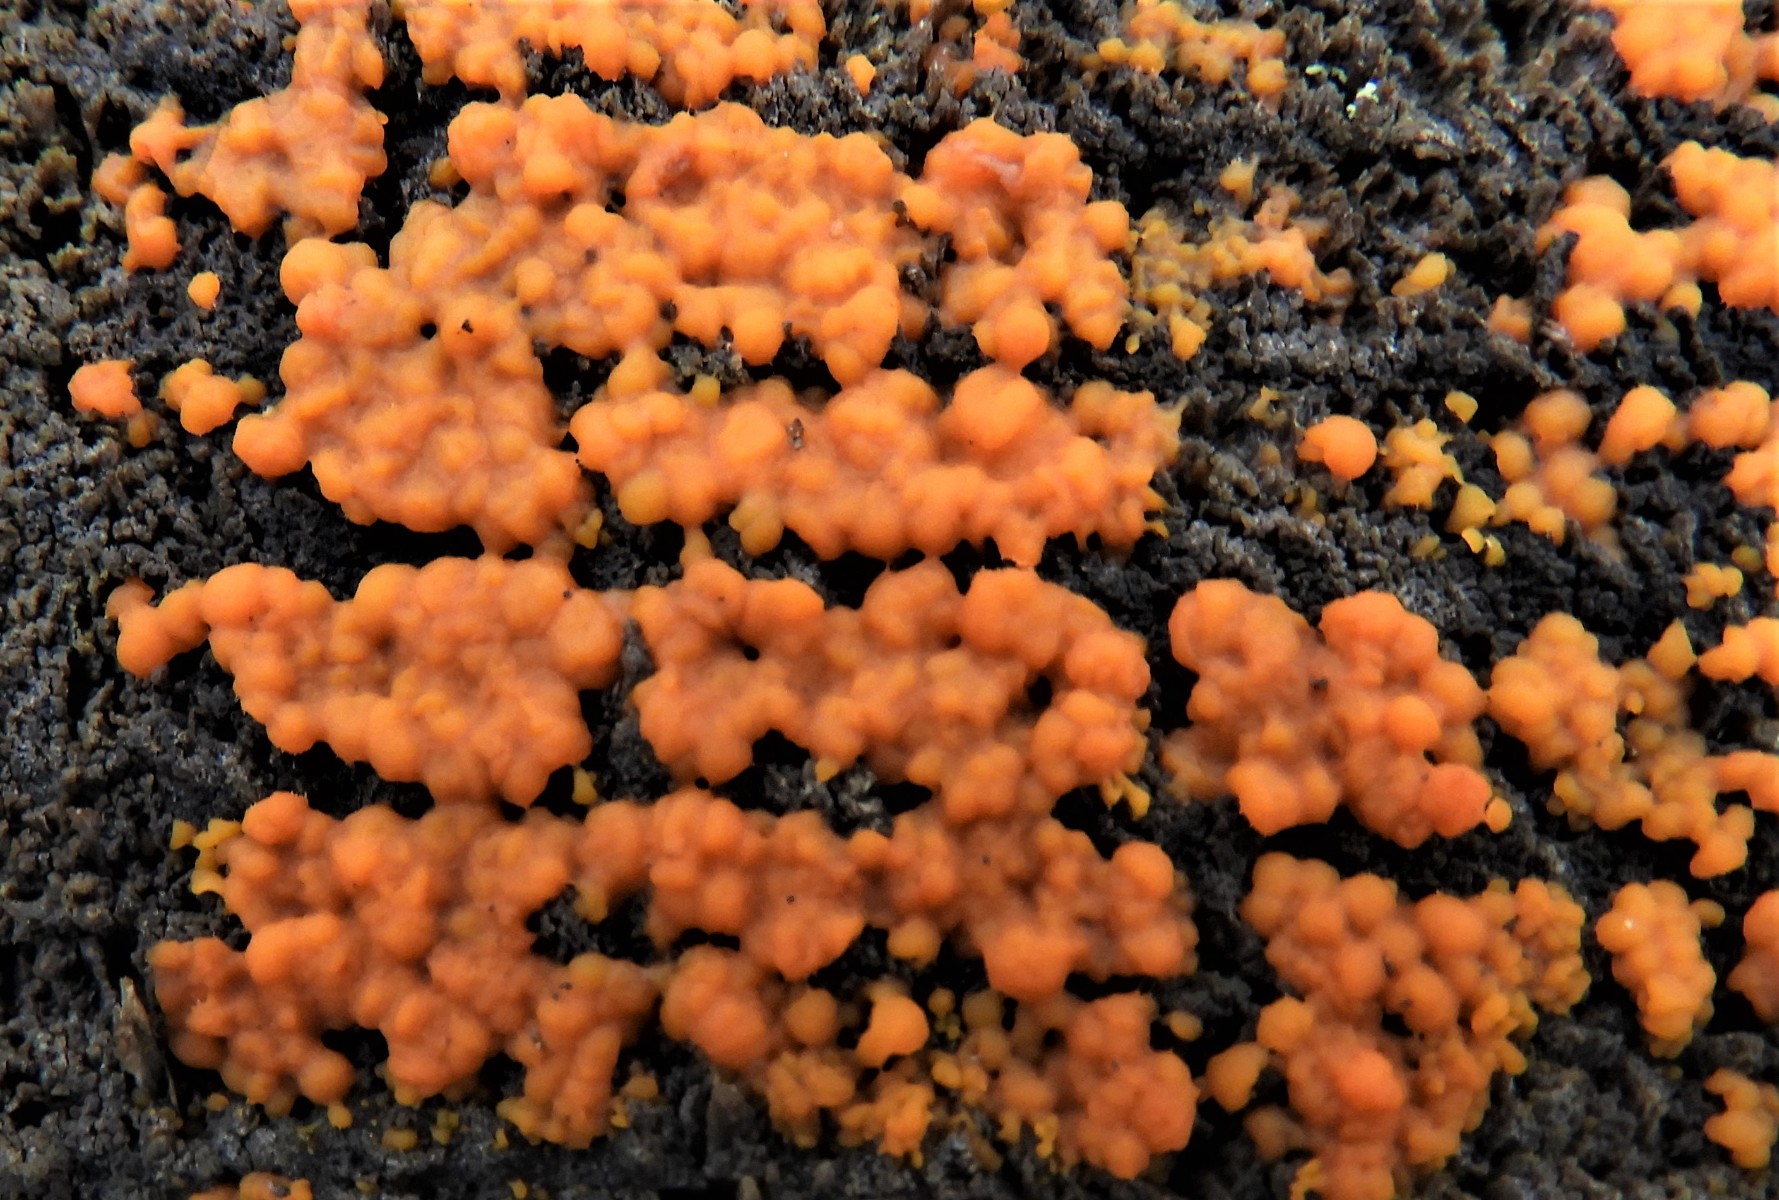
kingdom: Fungi
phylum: Basidiomycota
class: Dacrymycetes
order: Dacrymycetales
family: Dacrymycetaceae
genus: Dacrymyces
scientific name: Dacrymyces stillatus
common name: almindelig tåresvamp
